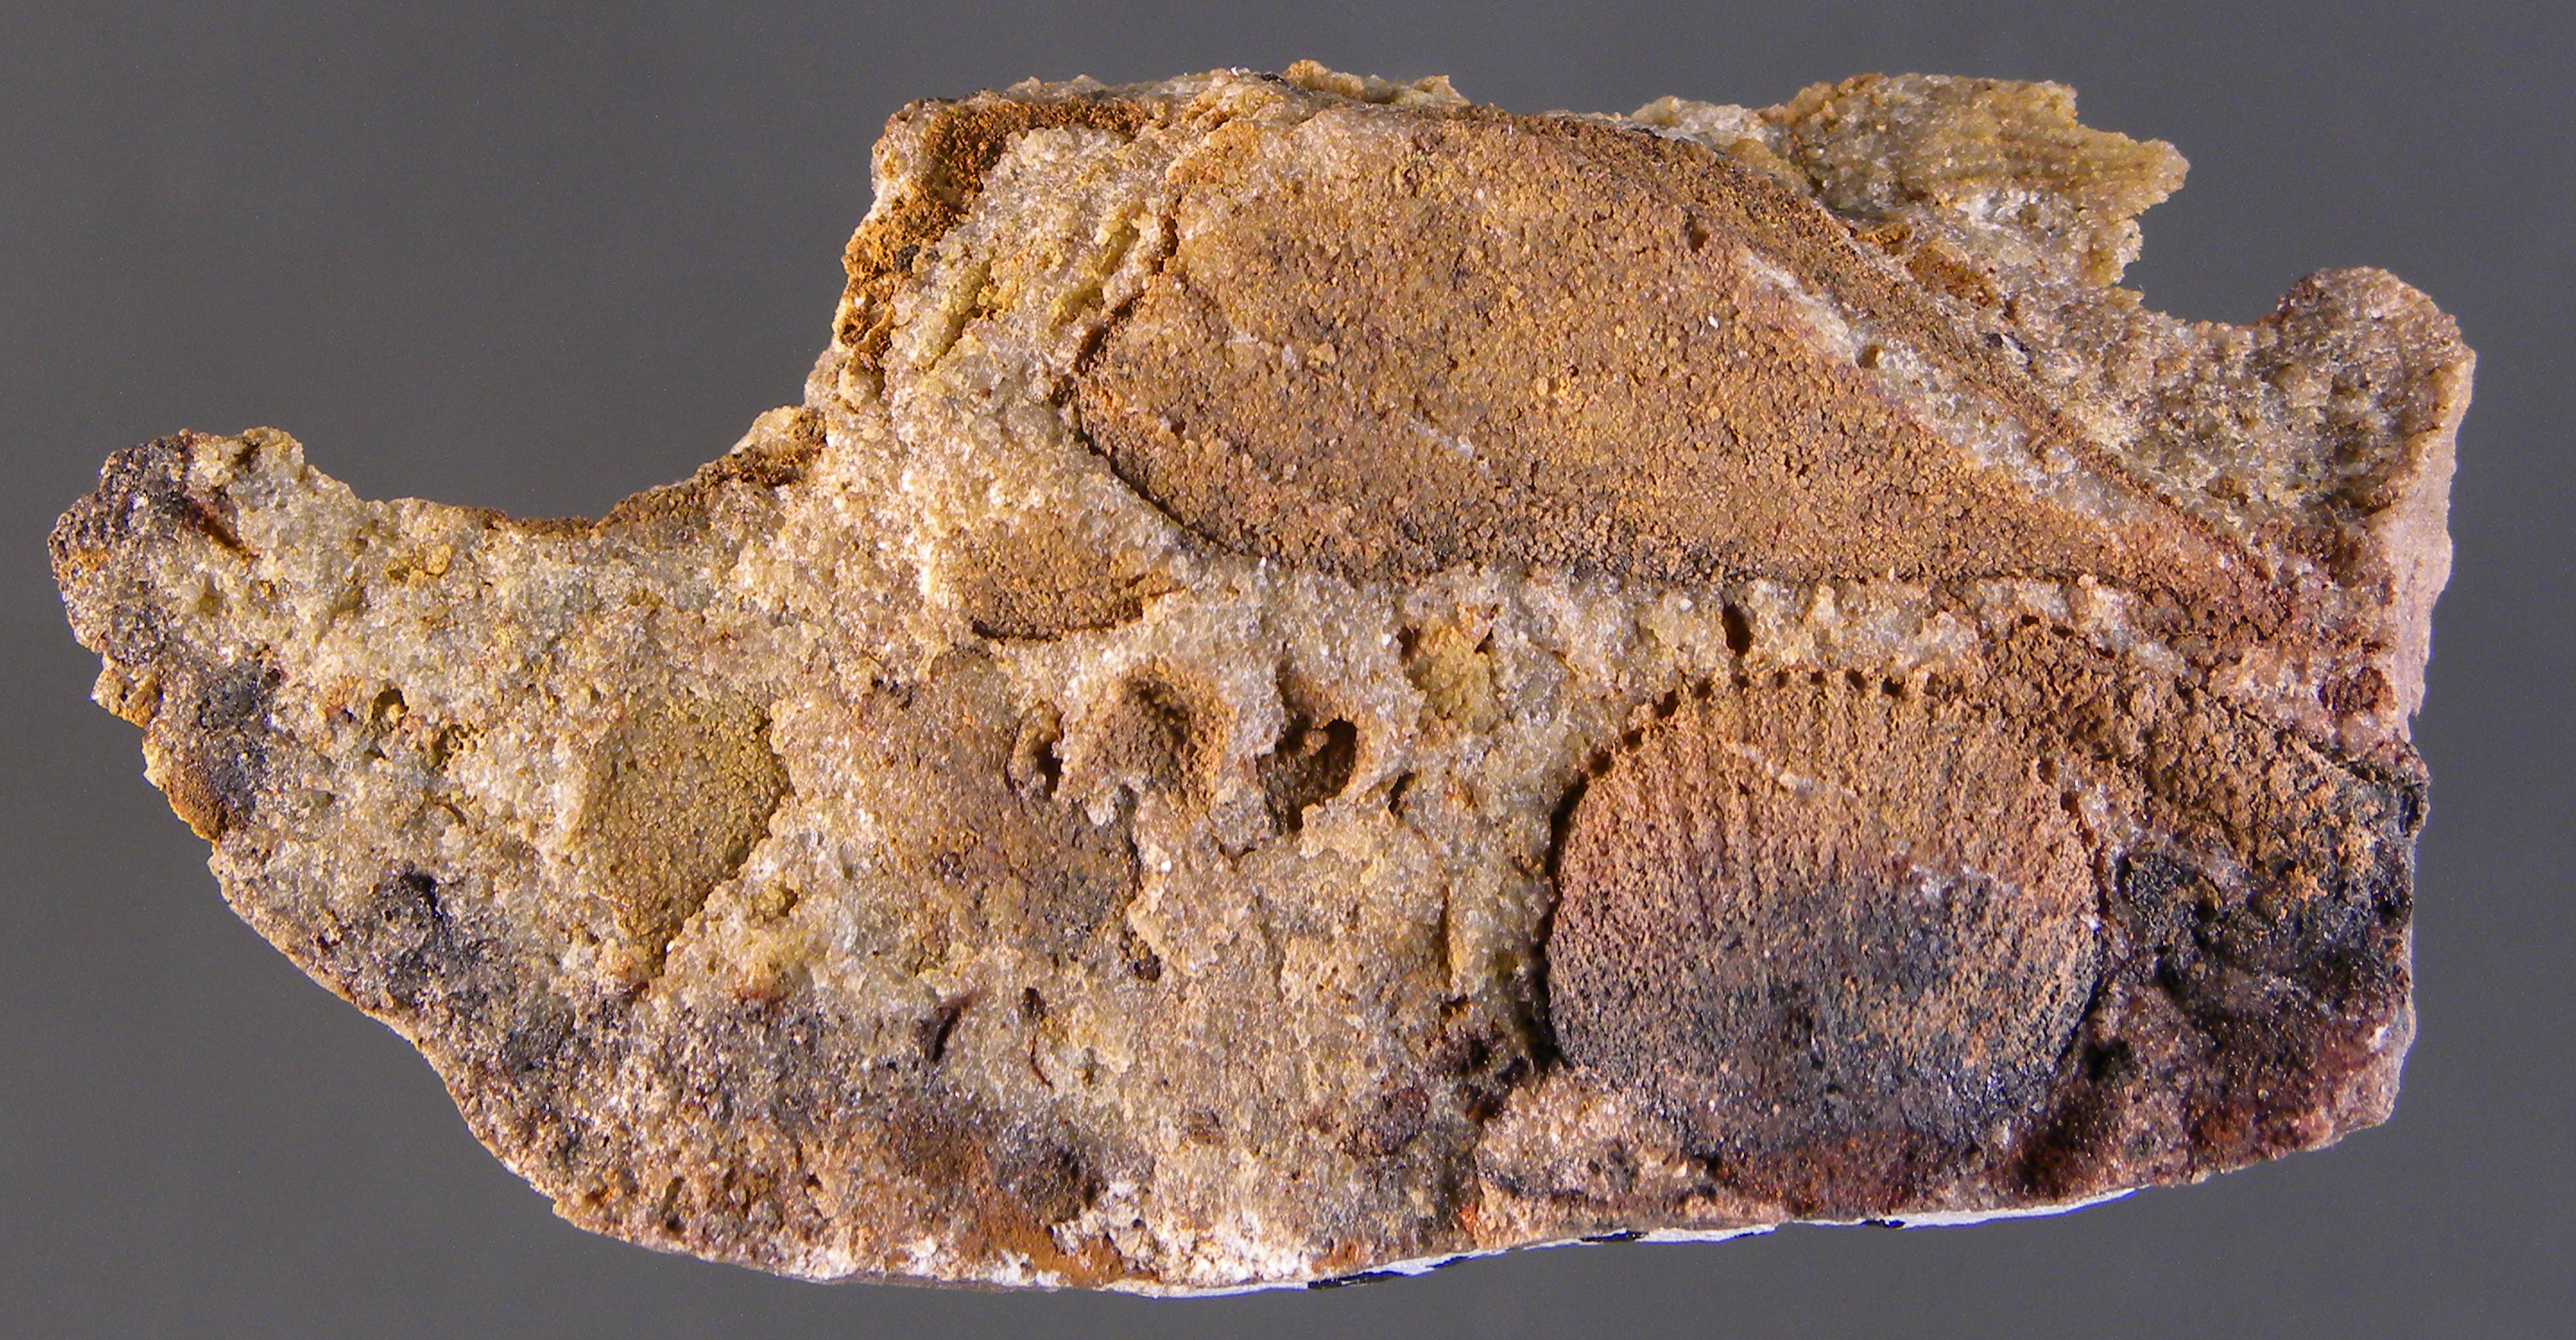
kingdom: Animalia
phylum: Mollusca
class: Bivalvia
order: Modiomorphida
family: Modiomorphidae
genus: Goniomorpha
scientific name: Goniomorpha
